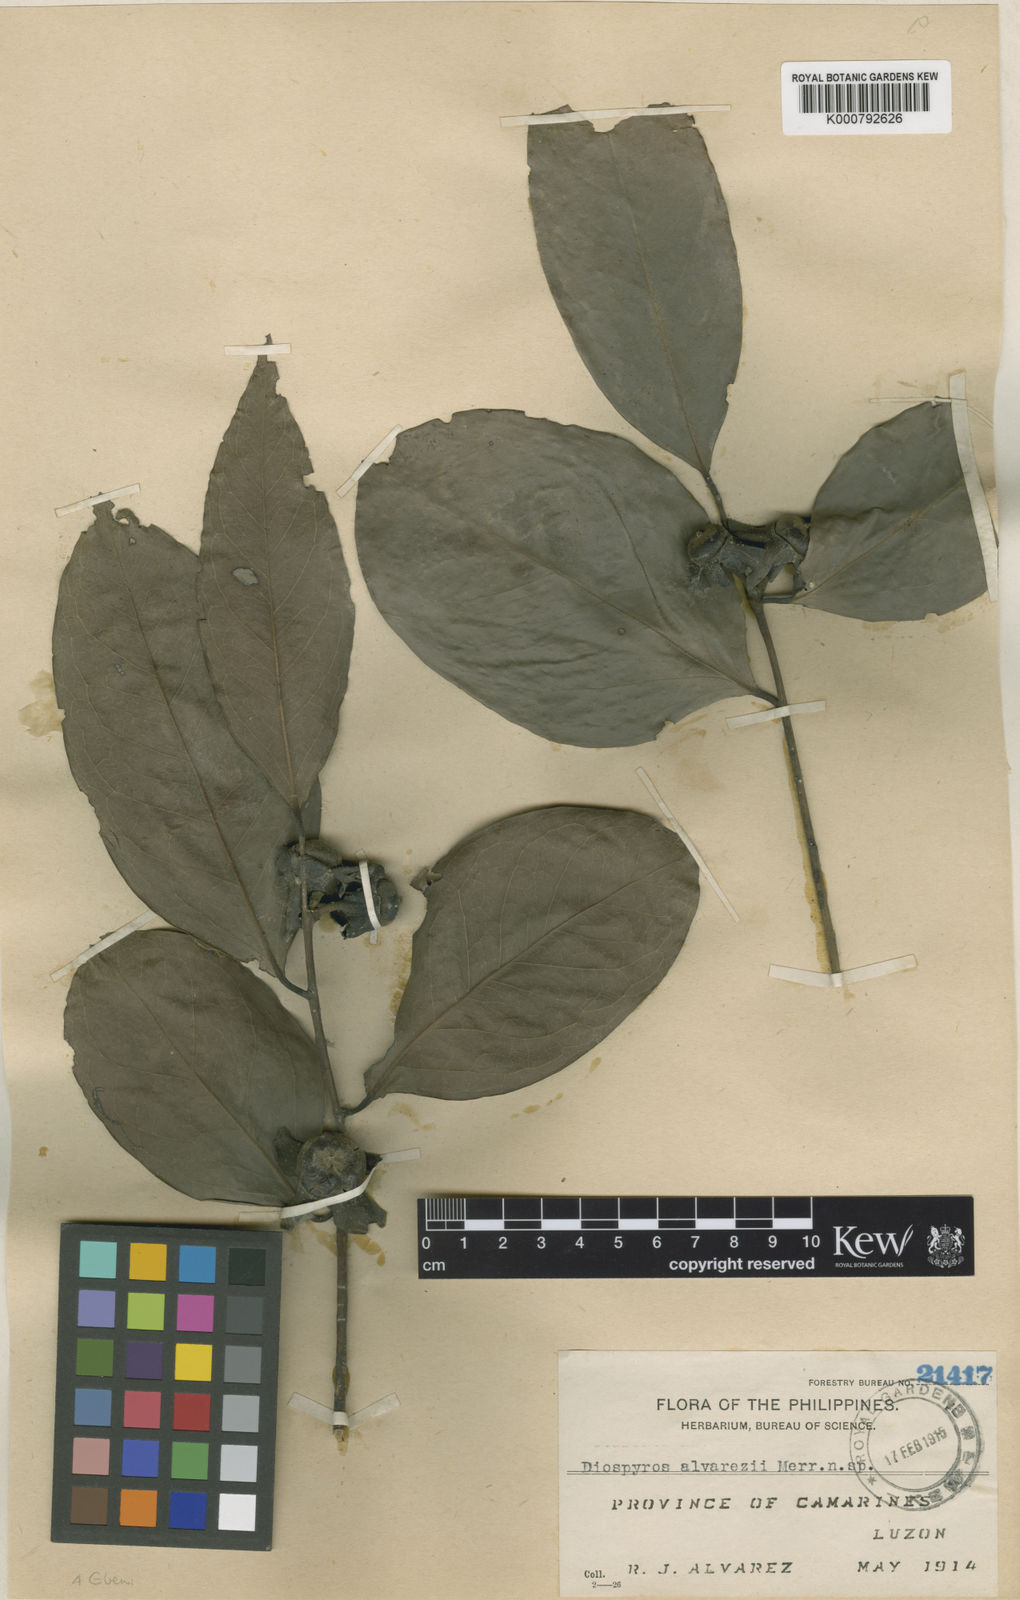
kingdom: Plantae
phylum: Tracheophyta
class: Magnoliopsida
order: Ericales
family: Ebenaceae
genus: Diospyros
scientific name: Diospyros hebecarpa
